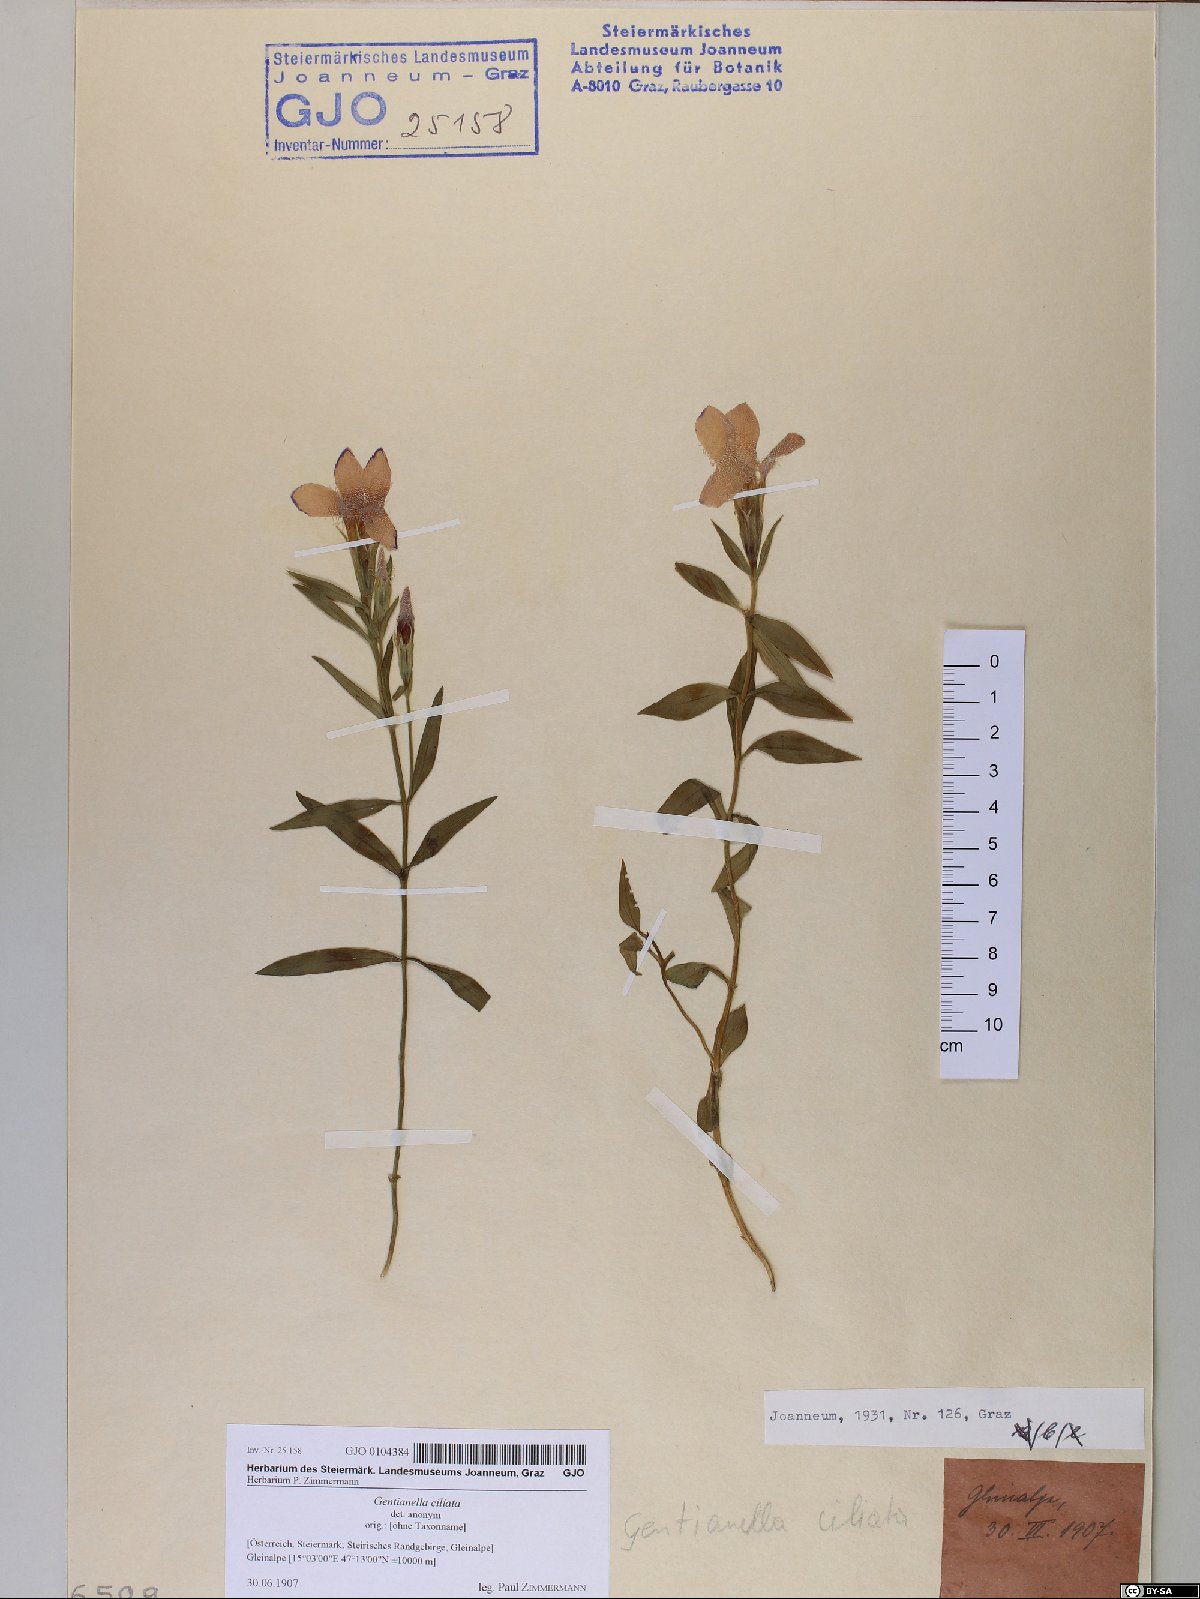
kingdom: Plantae
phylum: Tracheophyta
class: Magnoliopsida
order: Gentianales
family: Gentianaceae
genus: Gentianopsis
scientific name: Gentianopsis ciliata
